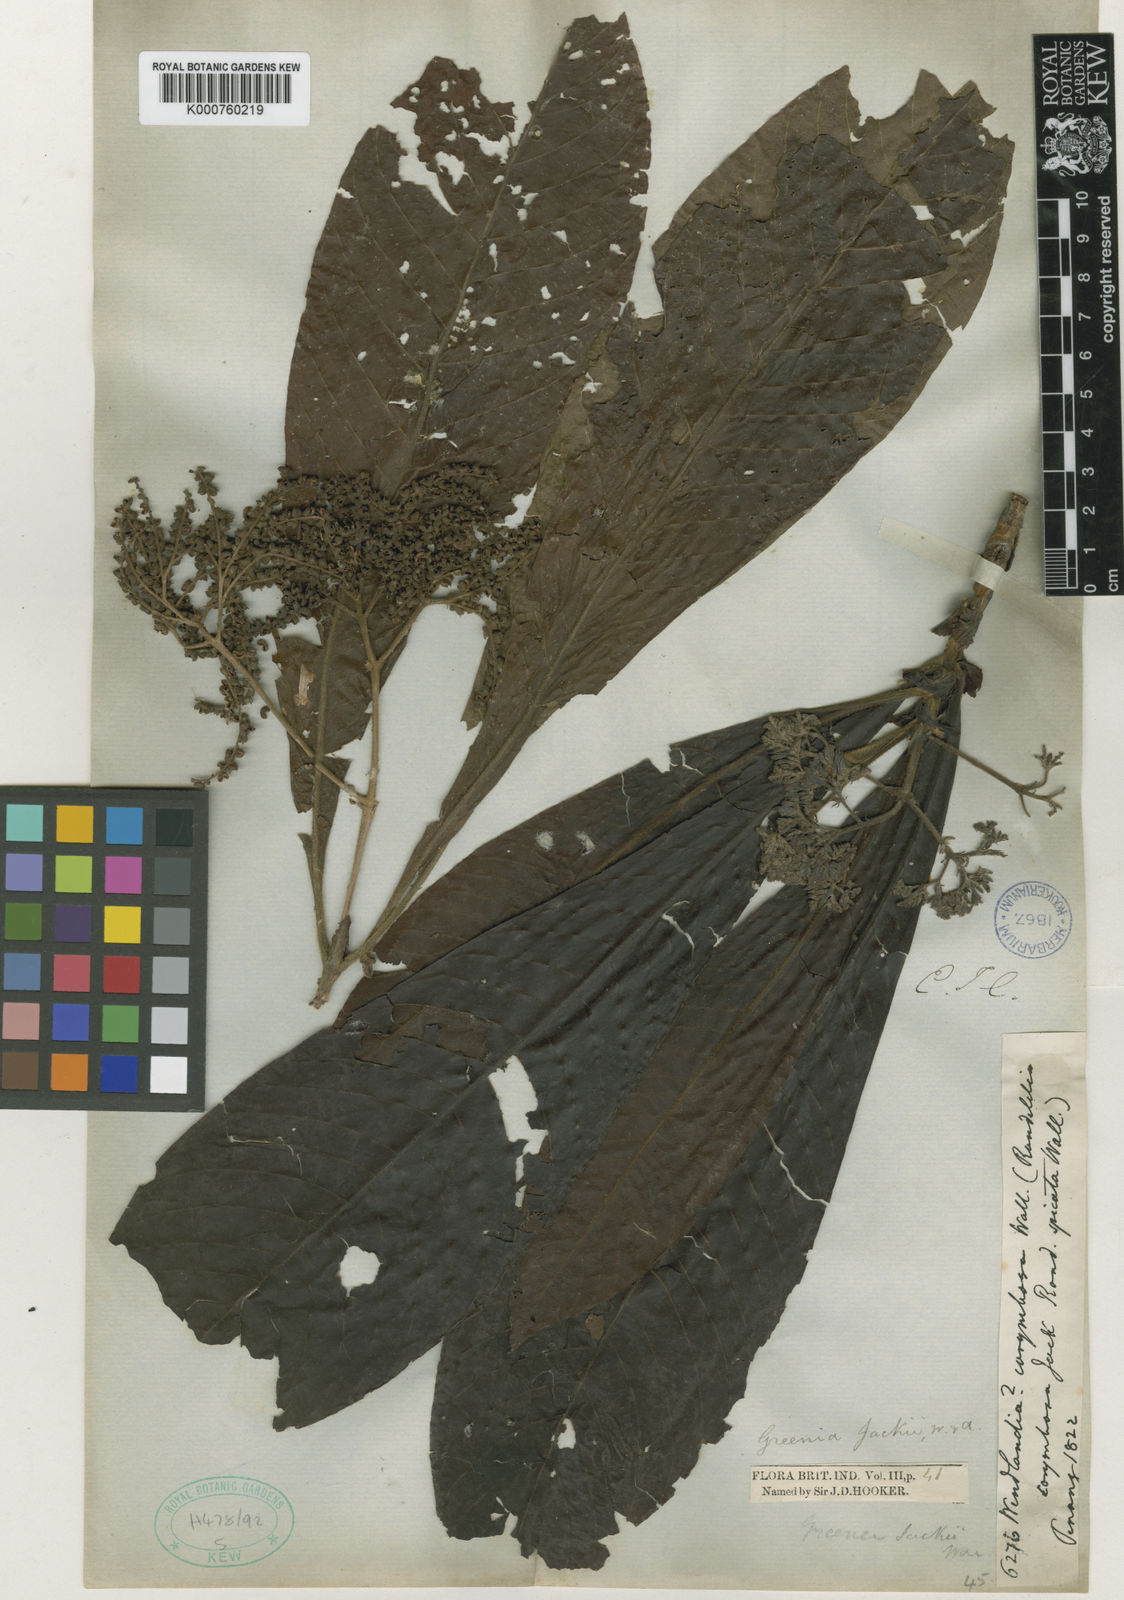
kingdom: Plantae
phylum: Tracheophyta
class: Magnoliopsida
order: Gentianales
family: Rubiaceae
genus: Greenea
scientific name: Greenea corymbosa
